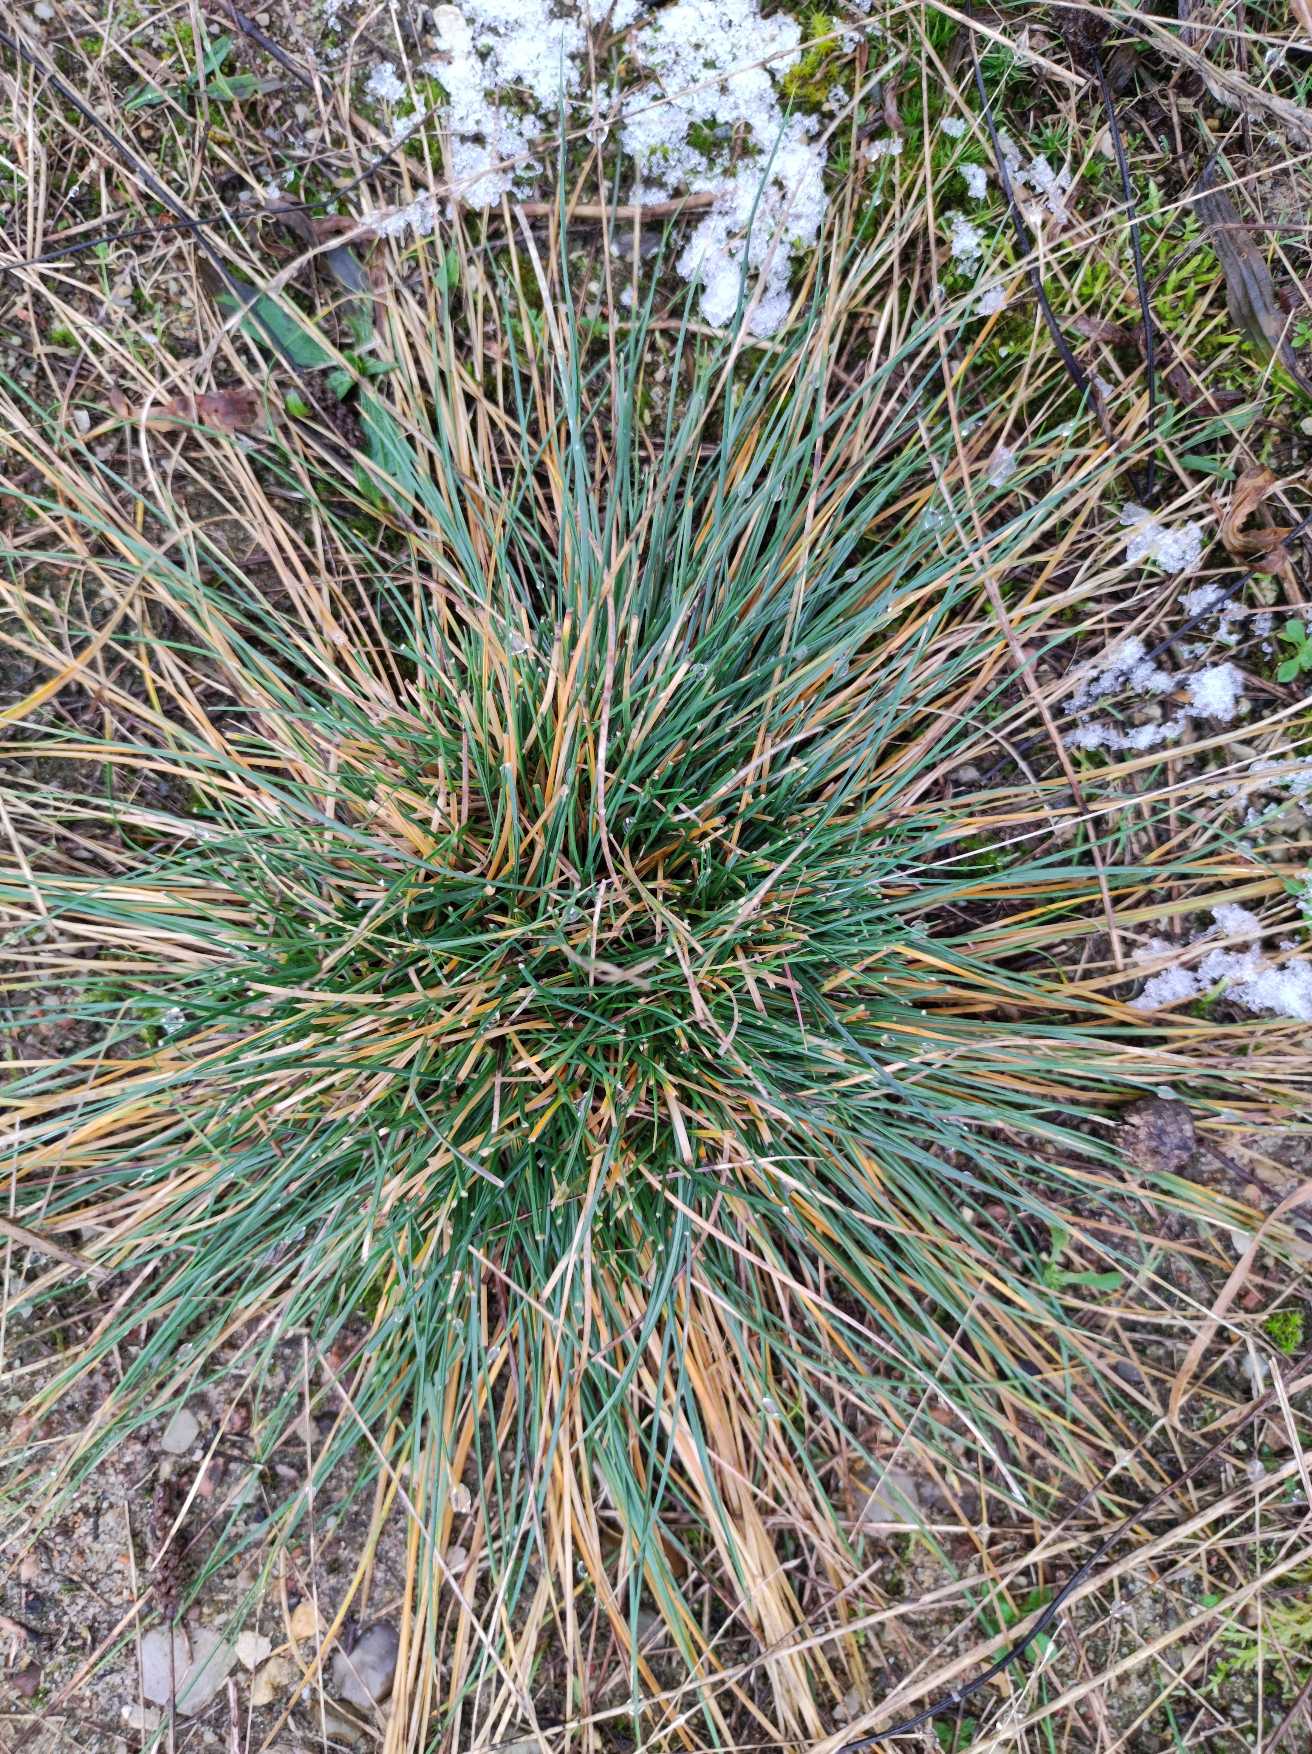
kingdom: Plantae
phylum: Tracheophyta
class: Liliopsida
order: Poales
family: Poaceae
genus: Corynephorus
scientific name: Corynephorus canescens
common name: Sandskæg
